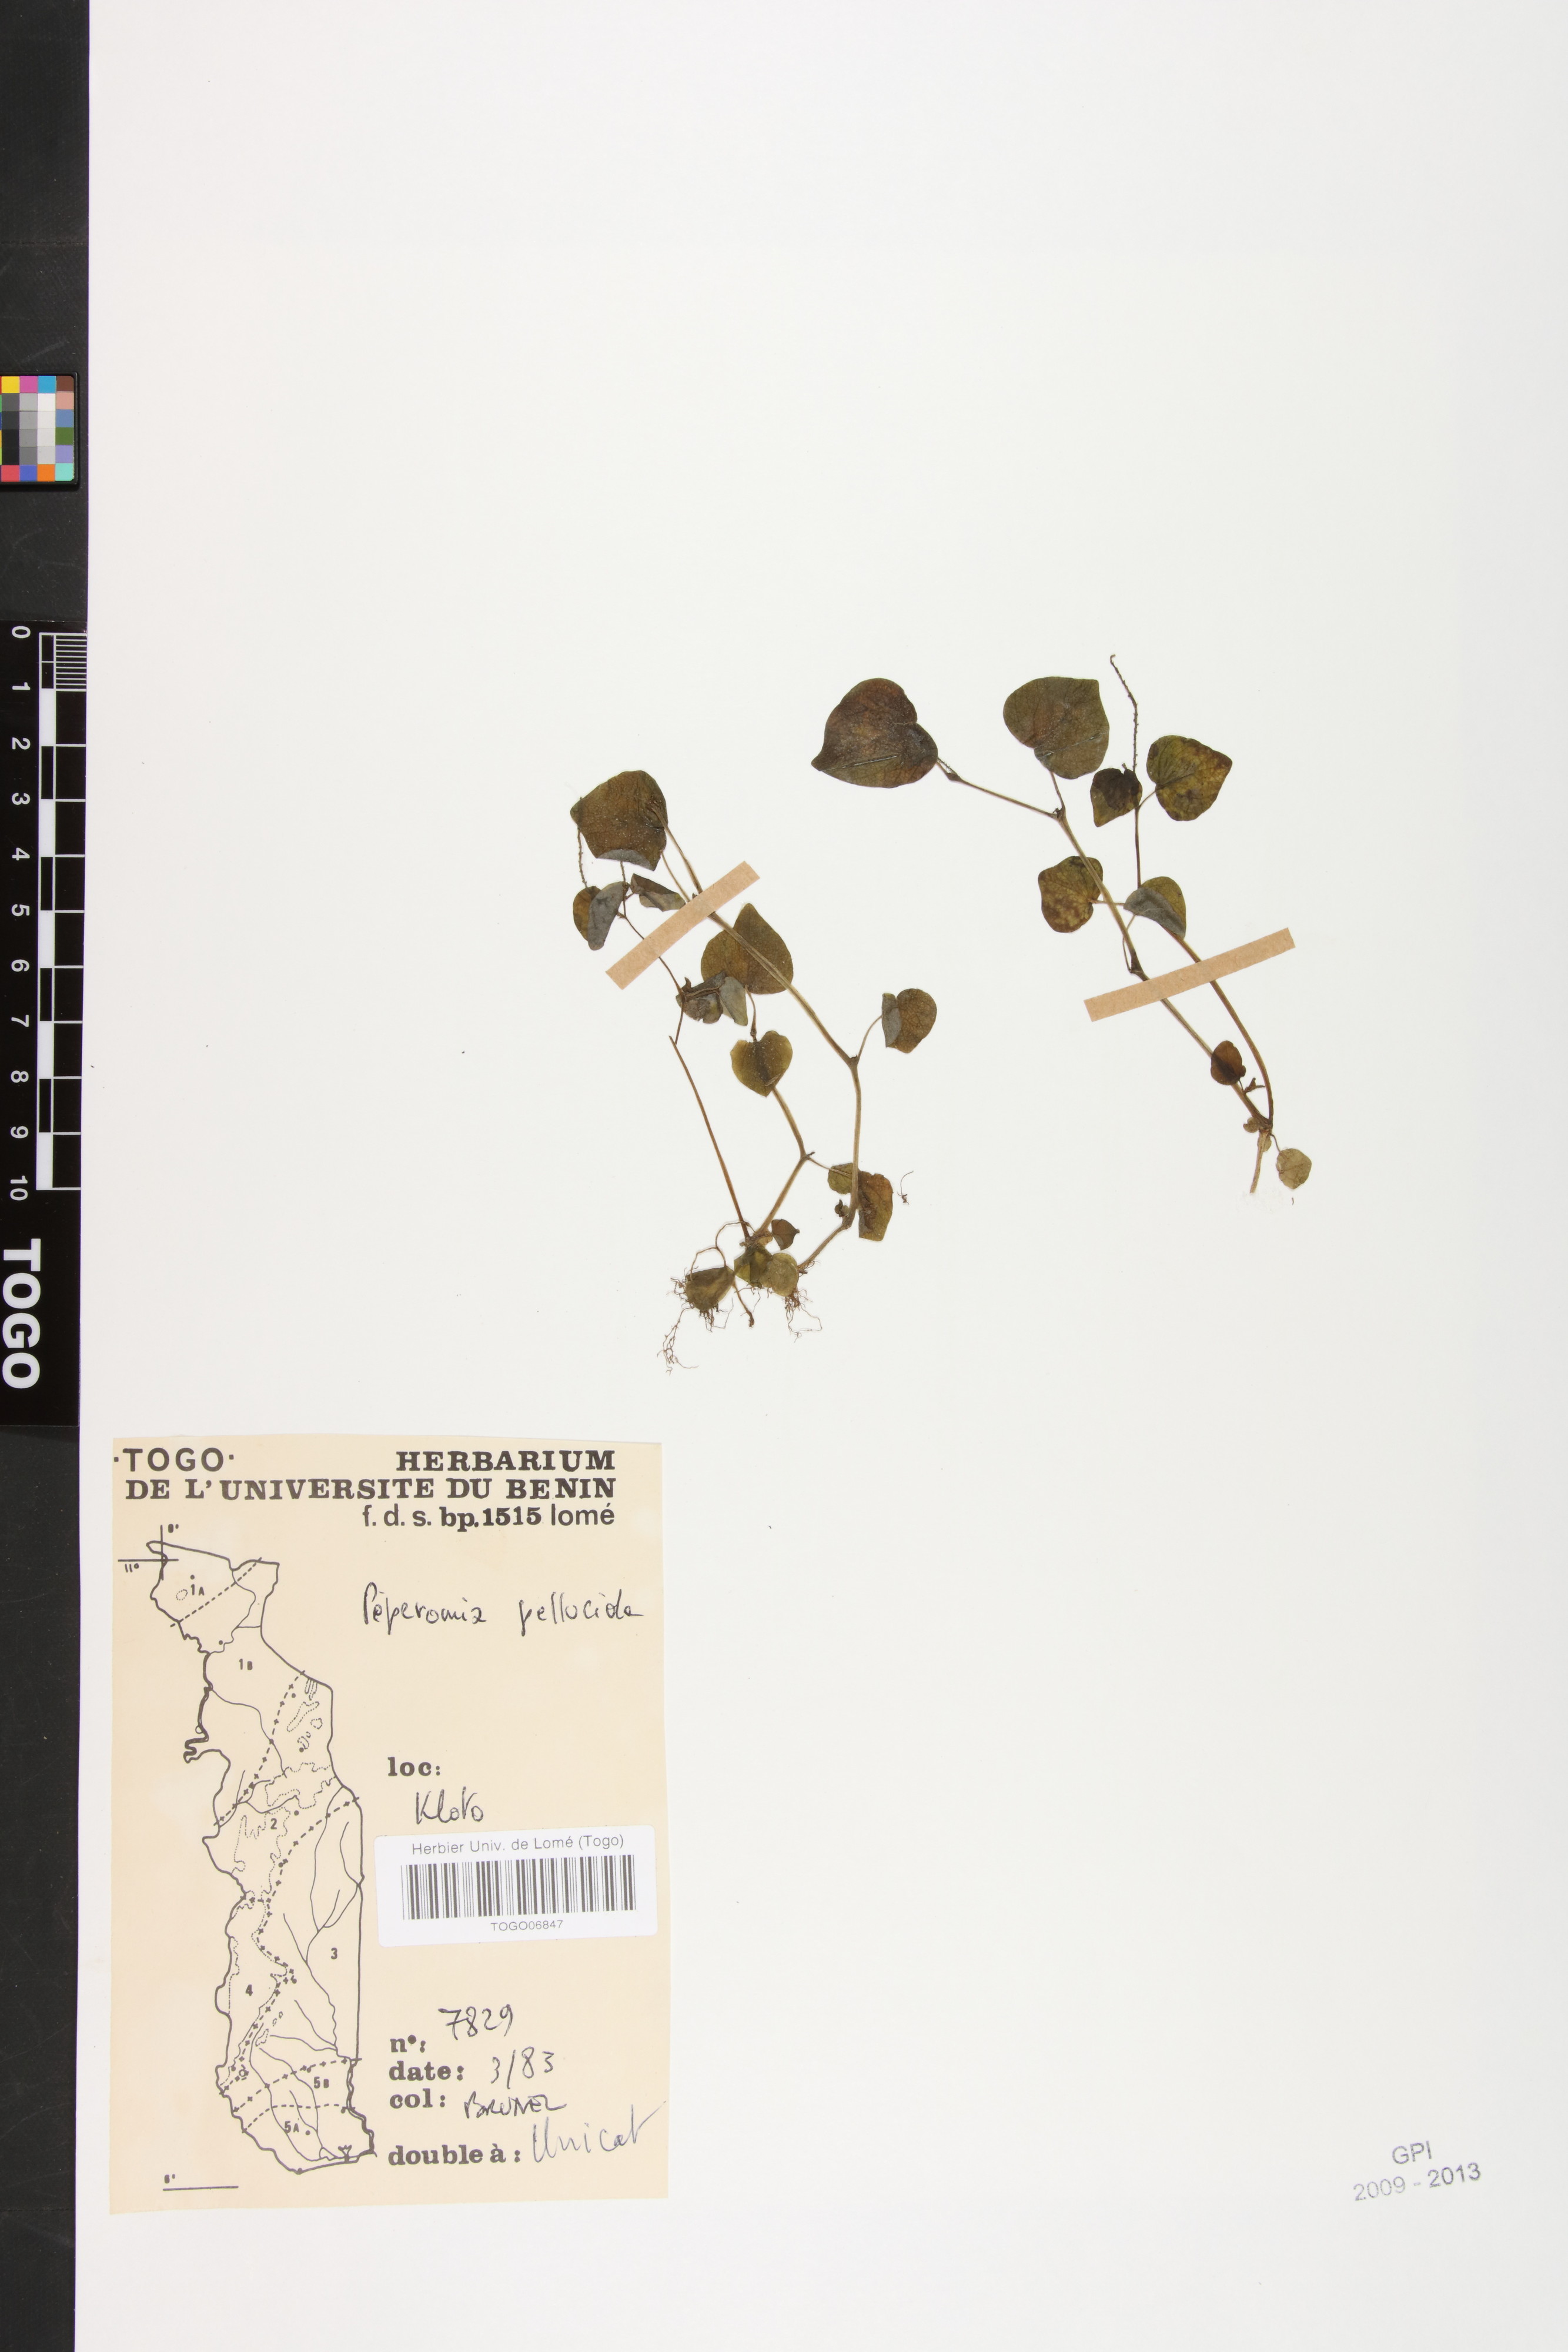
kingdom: Plantae
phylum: Tracheophyta
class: Magnoliopsida
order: Piperales
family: Piperaceae
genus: Peperomia
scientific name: Peperomia pellucida
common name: Man to man
